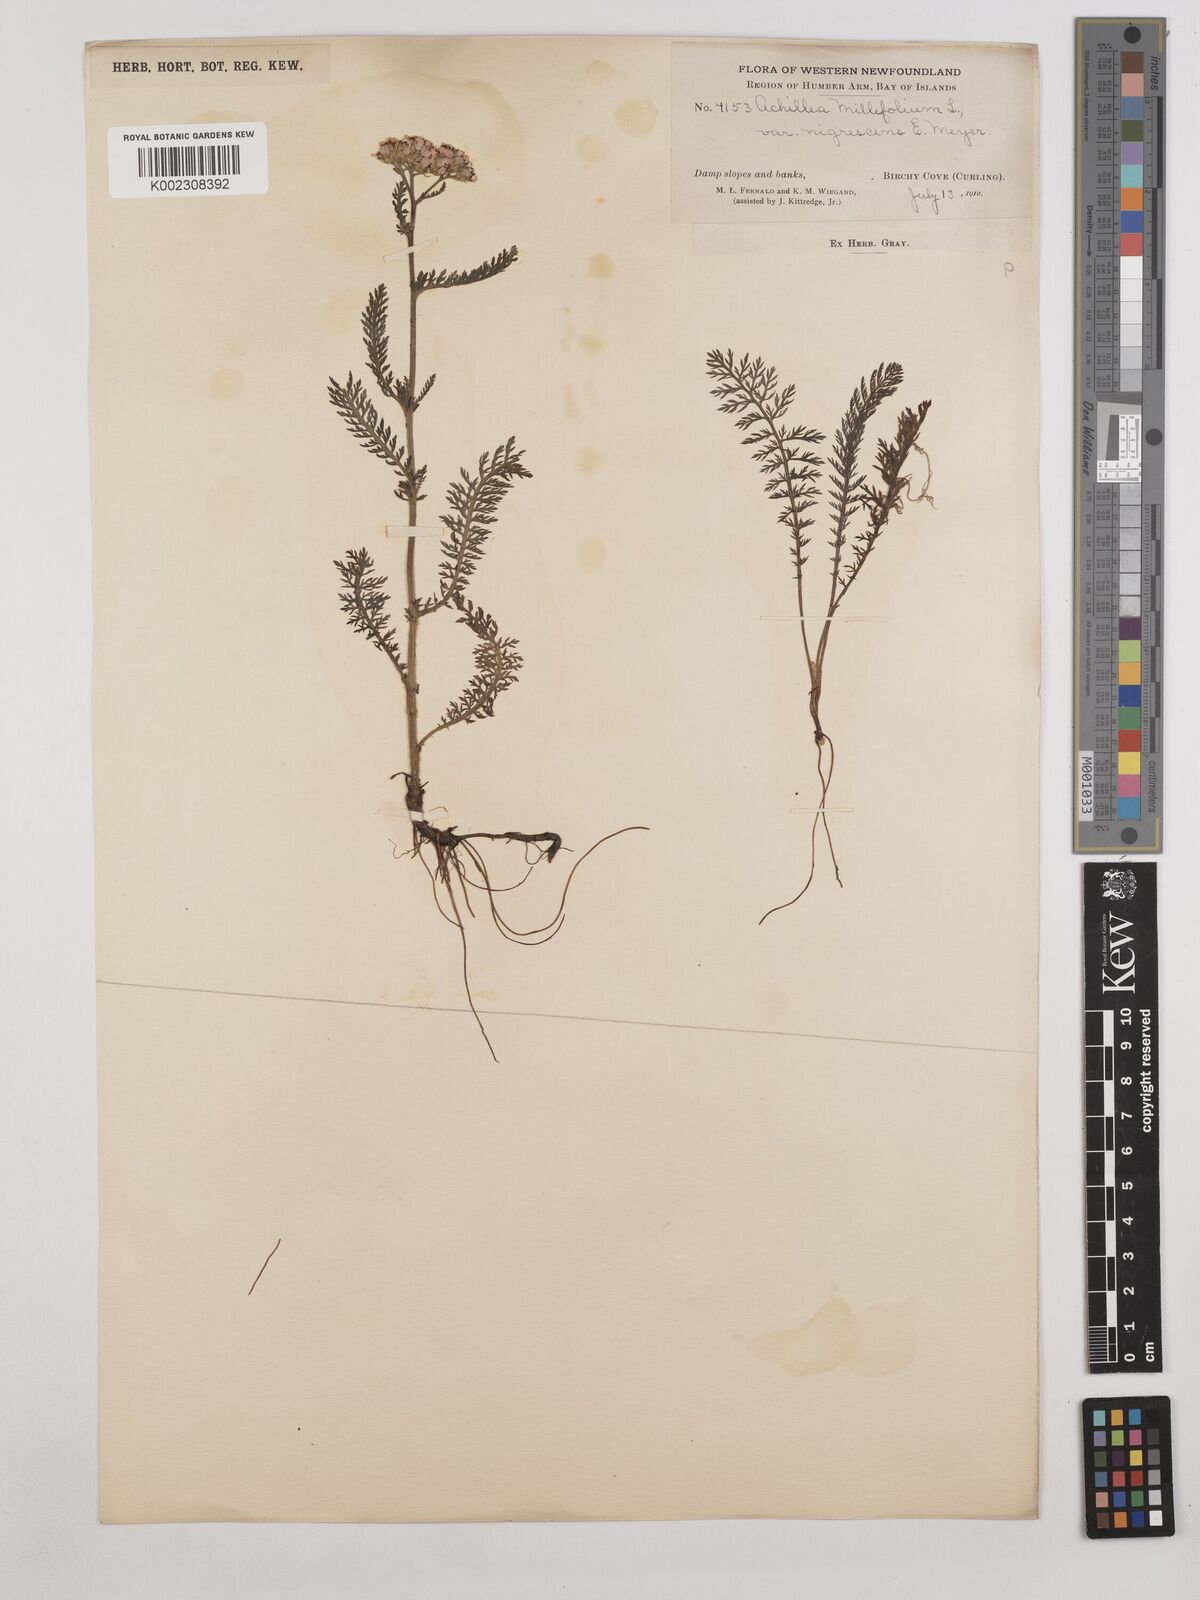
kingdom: Plantae
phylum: Tracheophyta
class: Magnoliopsida
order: Asterales
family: Asteraceae
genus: Achillea
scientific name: Achillea millefolium
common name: Yarrow
